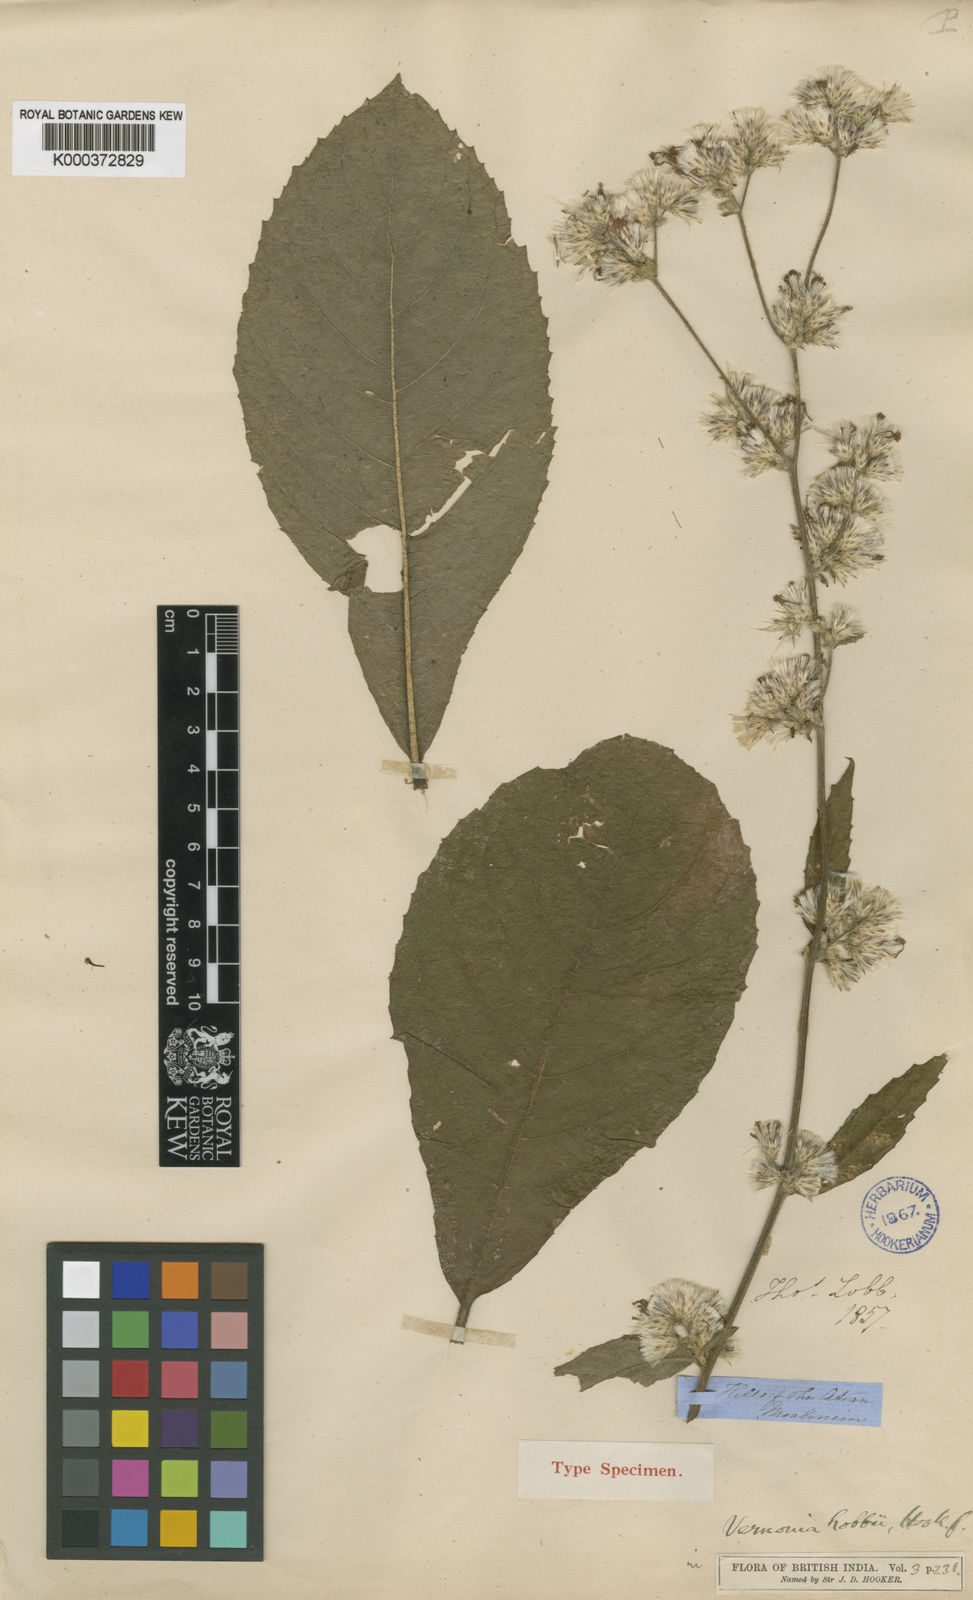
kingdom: Plantae
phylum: Tracheophyta
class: Magnoliopsida
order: Asterales
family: Asteraceae
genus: Acilepis
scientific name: Acilepis lobbii
